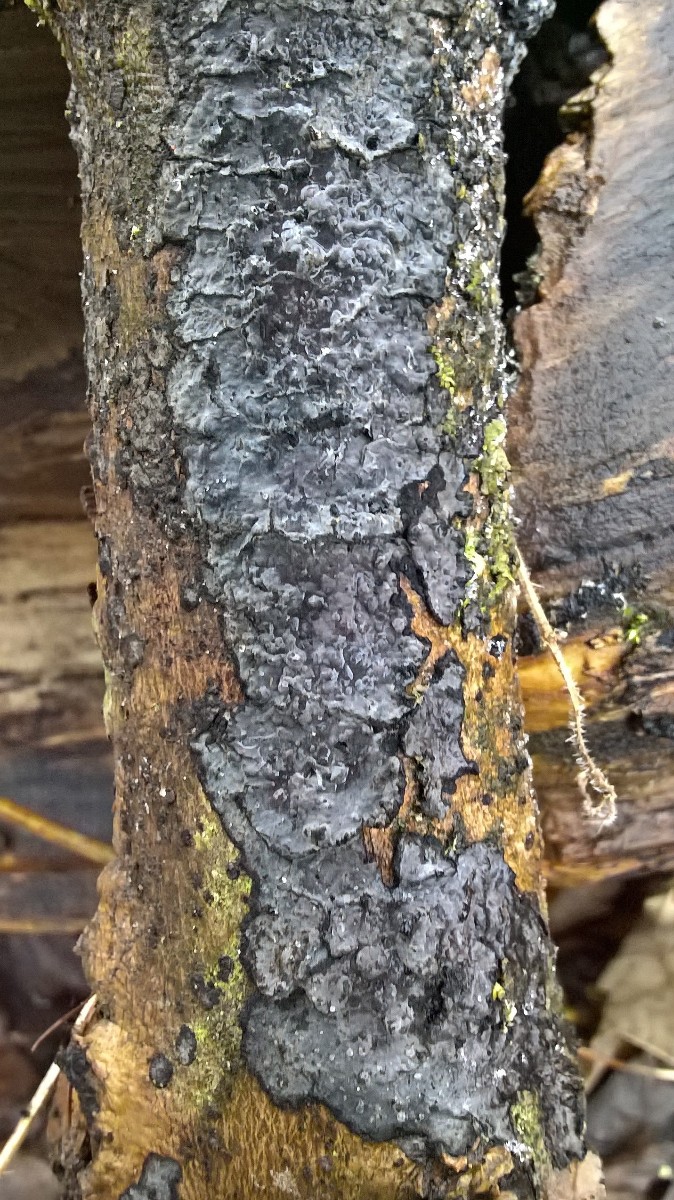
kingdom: Fungi
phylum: Basidiomycota
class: Agaricomycetes
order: Russulales
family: Peniophoraceae
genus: Peniophora
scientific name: Peniophora limitata
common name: mørkrandet voksskind
